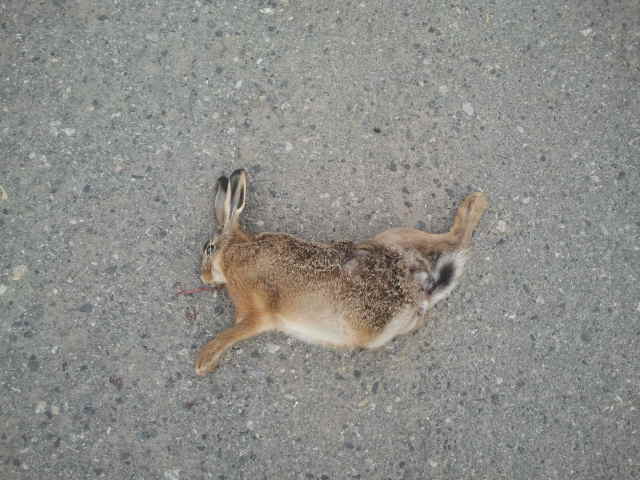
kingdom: Animalia
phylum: Chordata
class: Mammalia
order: Lagomorpha
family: Leporidae
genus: Lepus
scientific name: Lepus europaeus
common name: European hare
